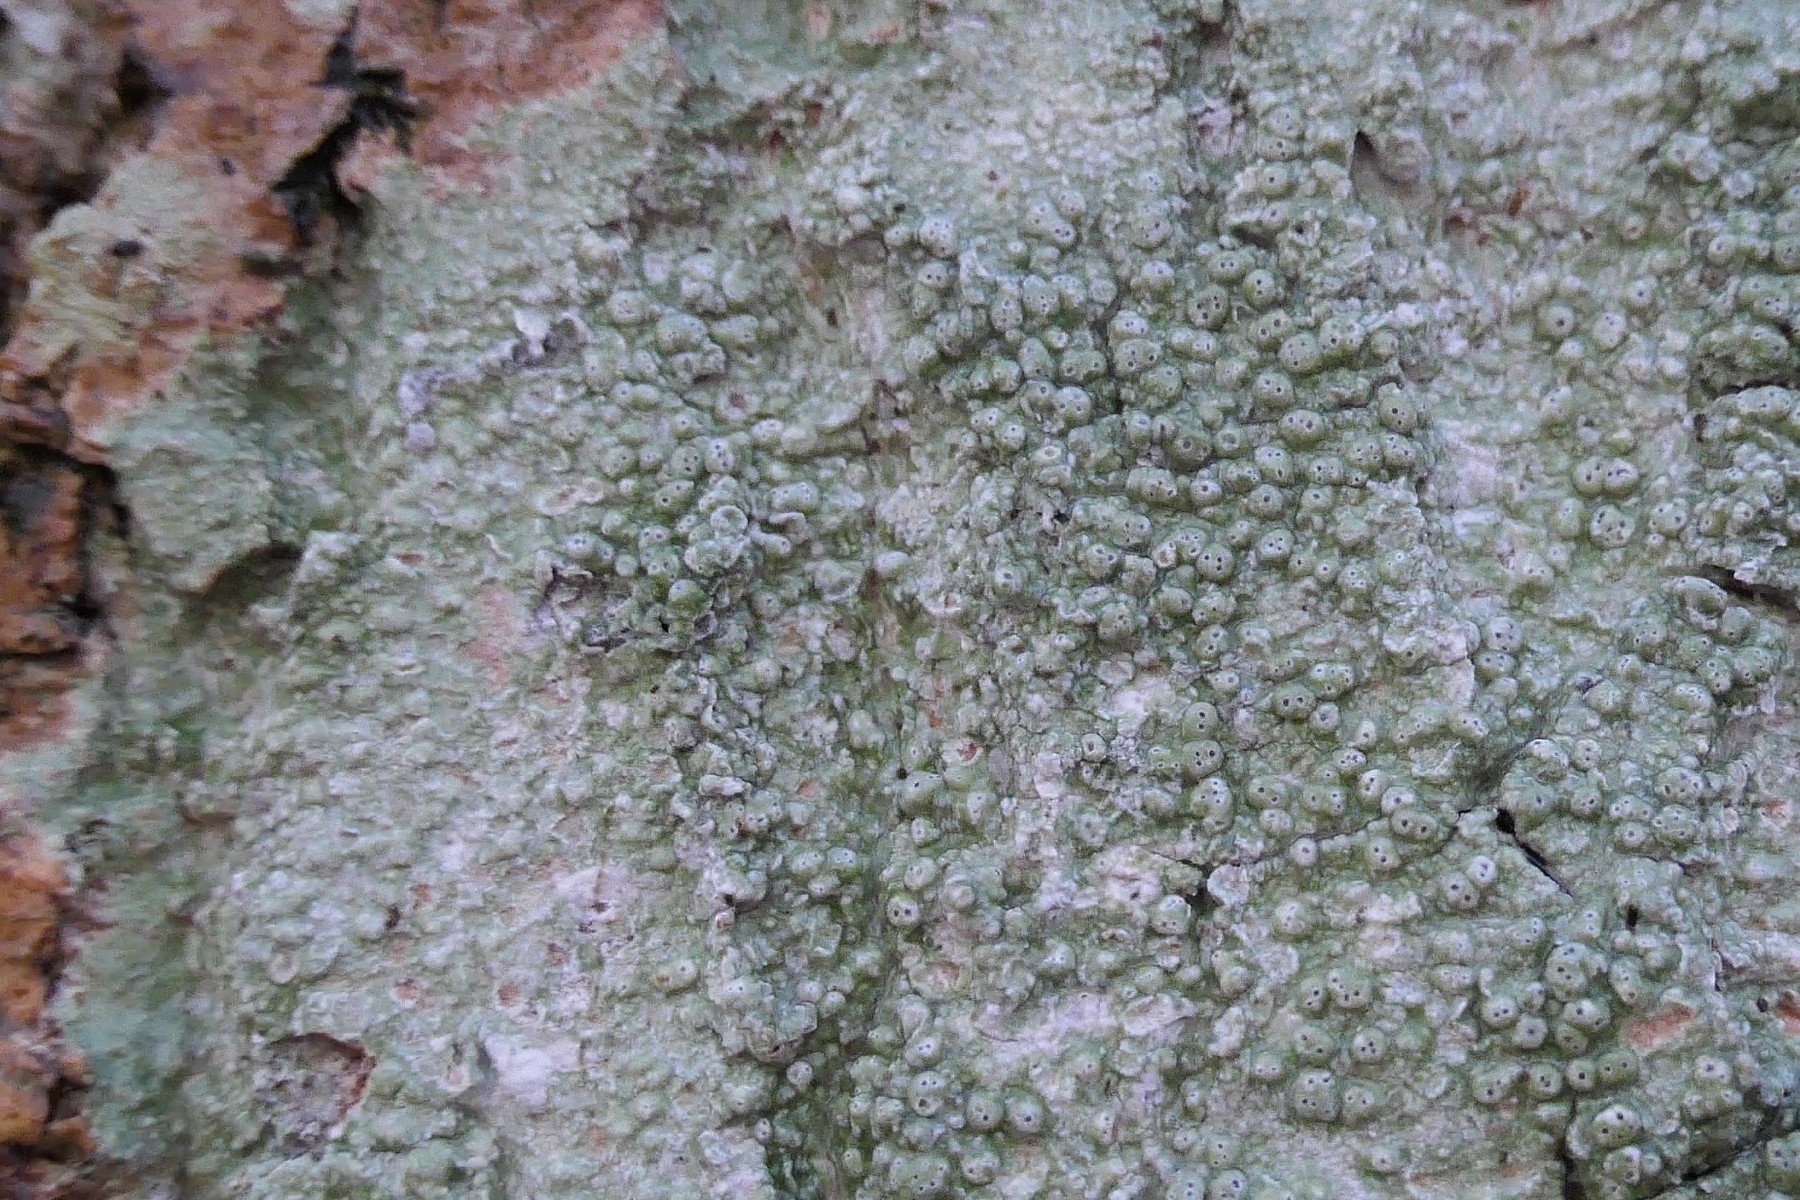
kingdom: Fungi
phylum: Ascomycota
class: Lecanoromycetes
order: Pertusariales
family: Pertusariaceae
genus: Pertusaria
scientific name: Pertusaria pertusa
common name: almindelig prikvortelav
